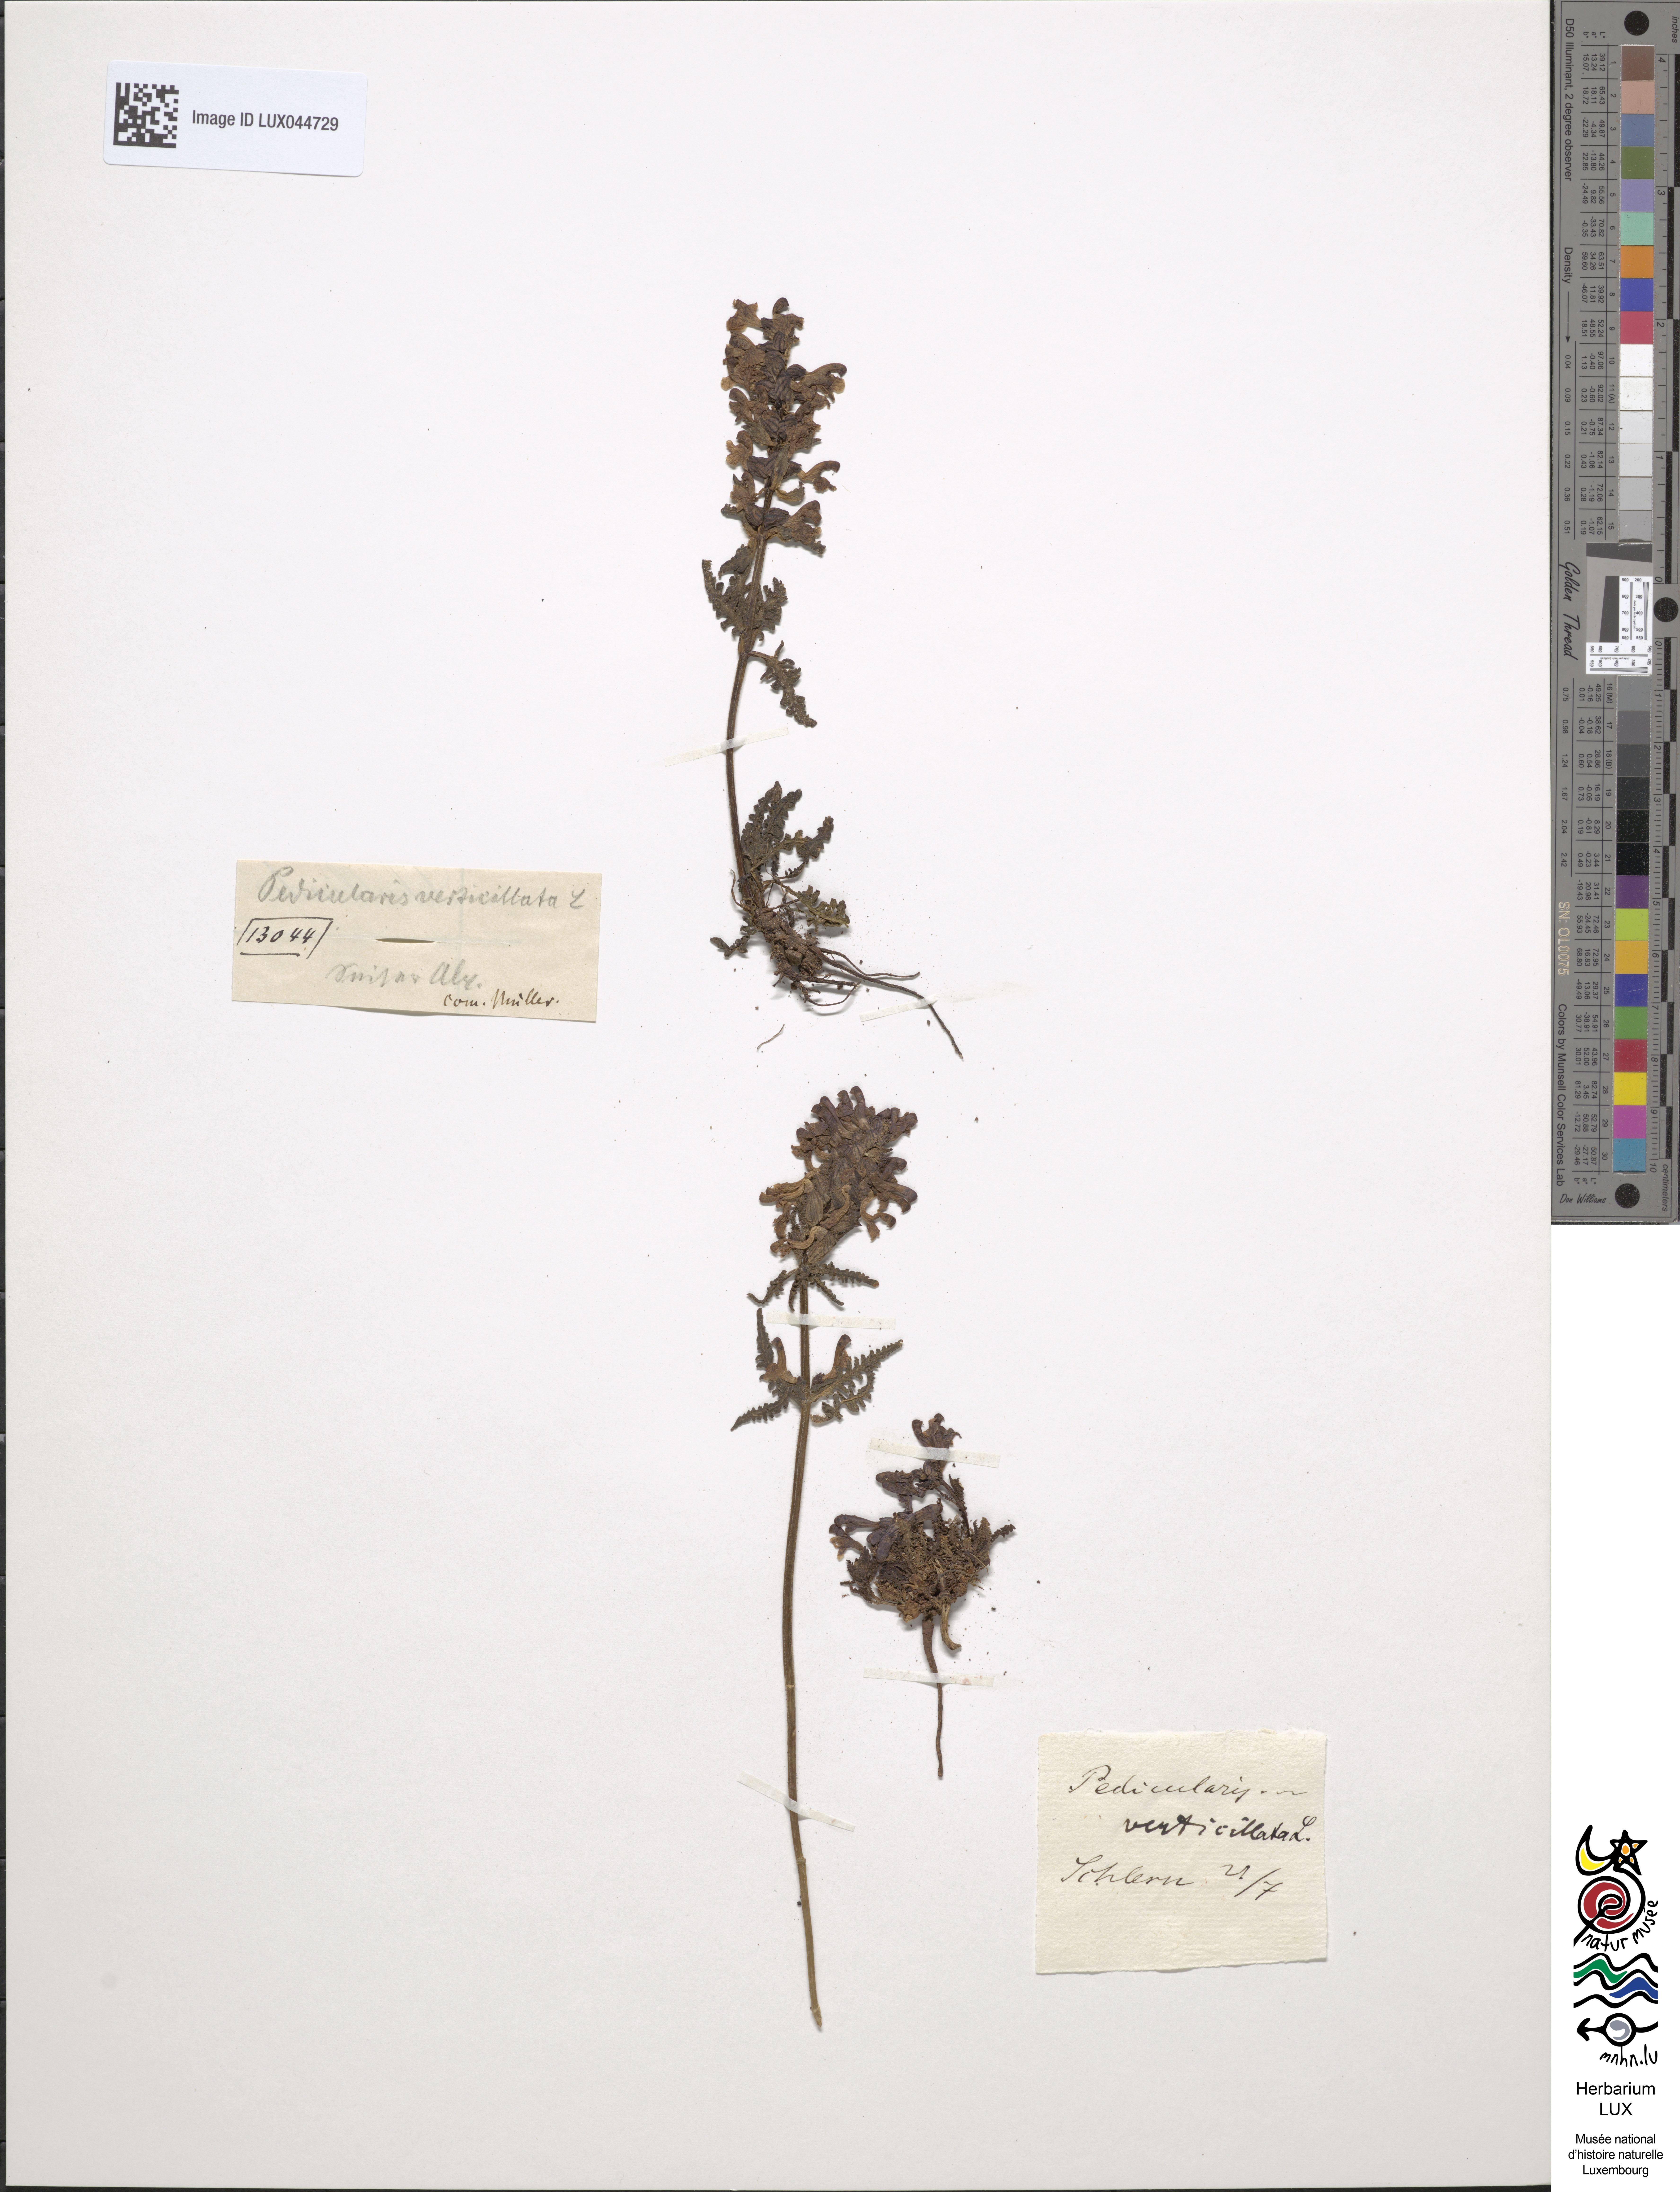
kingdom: Plantae
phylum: Tracheophyta
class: Magnoliopsida
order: Lamiales
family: Orobanchaceae
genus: Pedicularis
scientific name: Pedicularis verticillata
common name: Whorled lousewort
